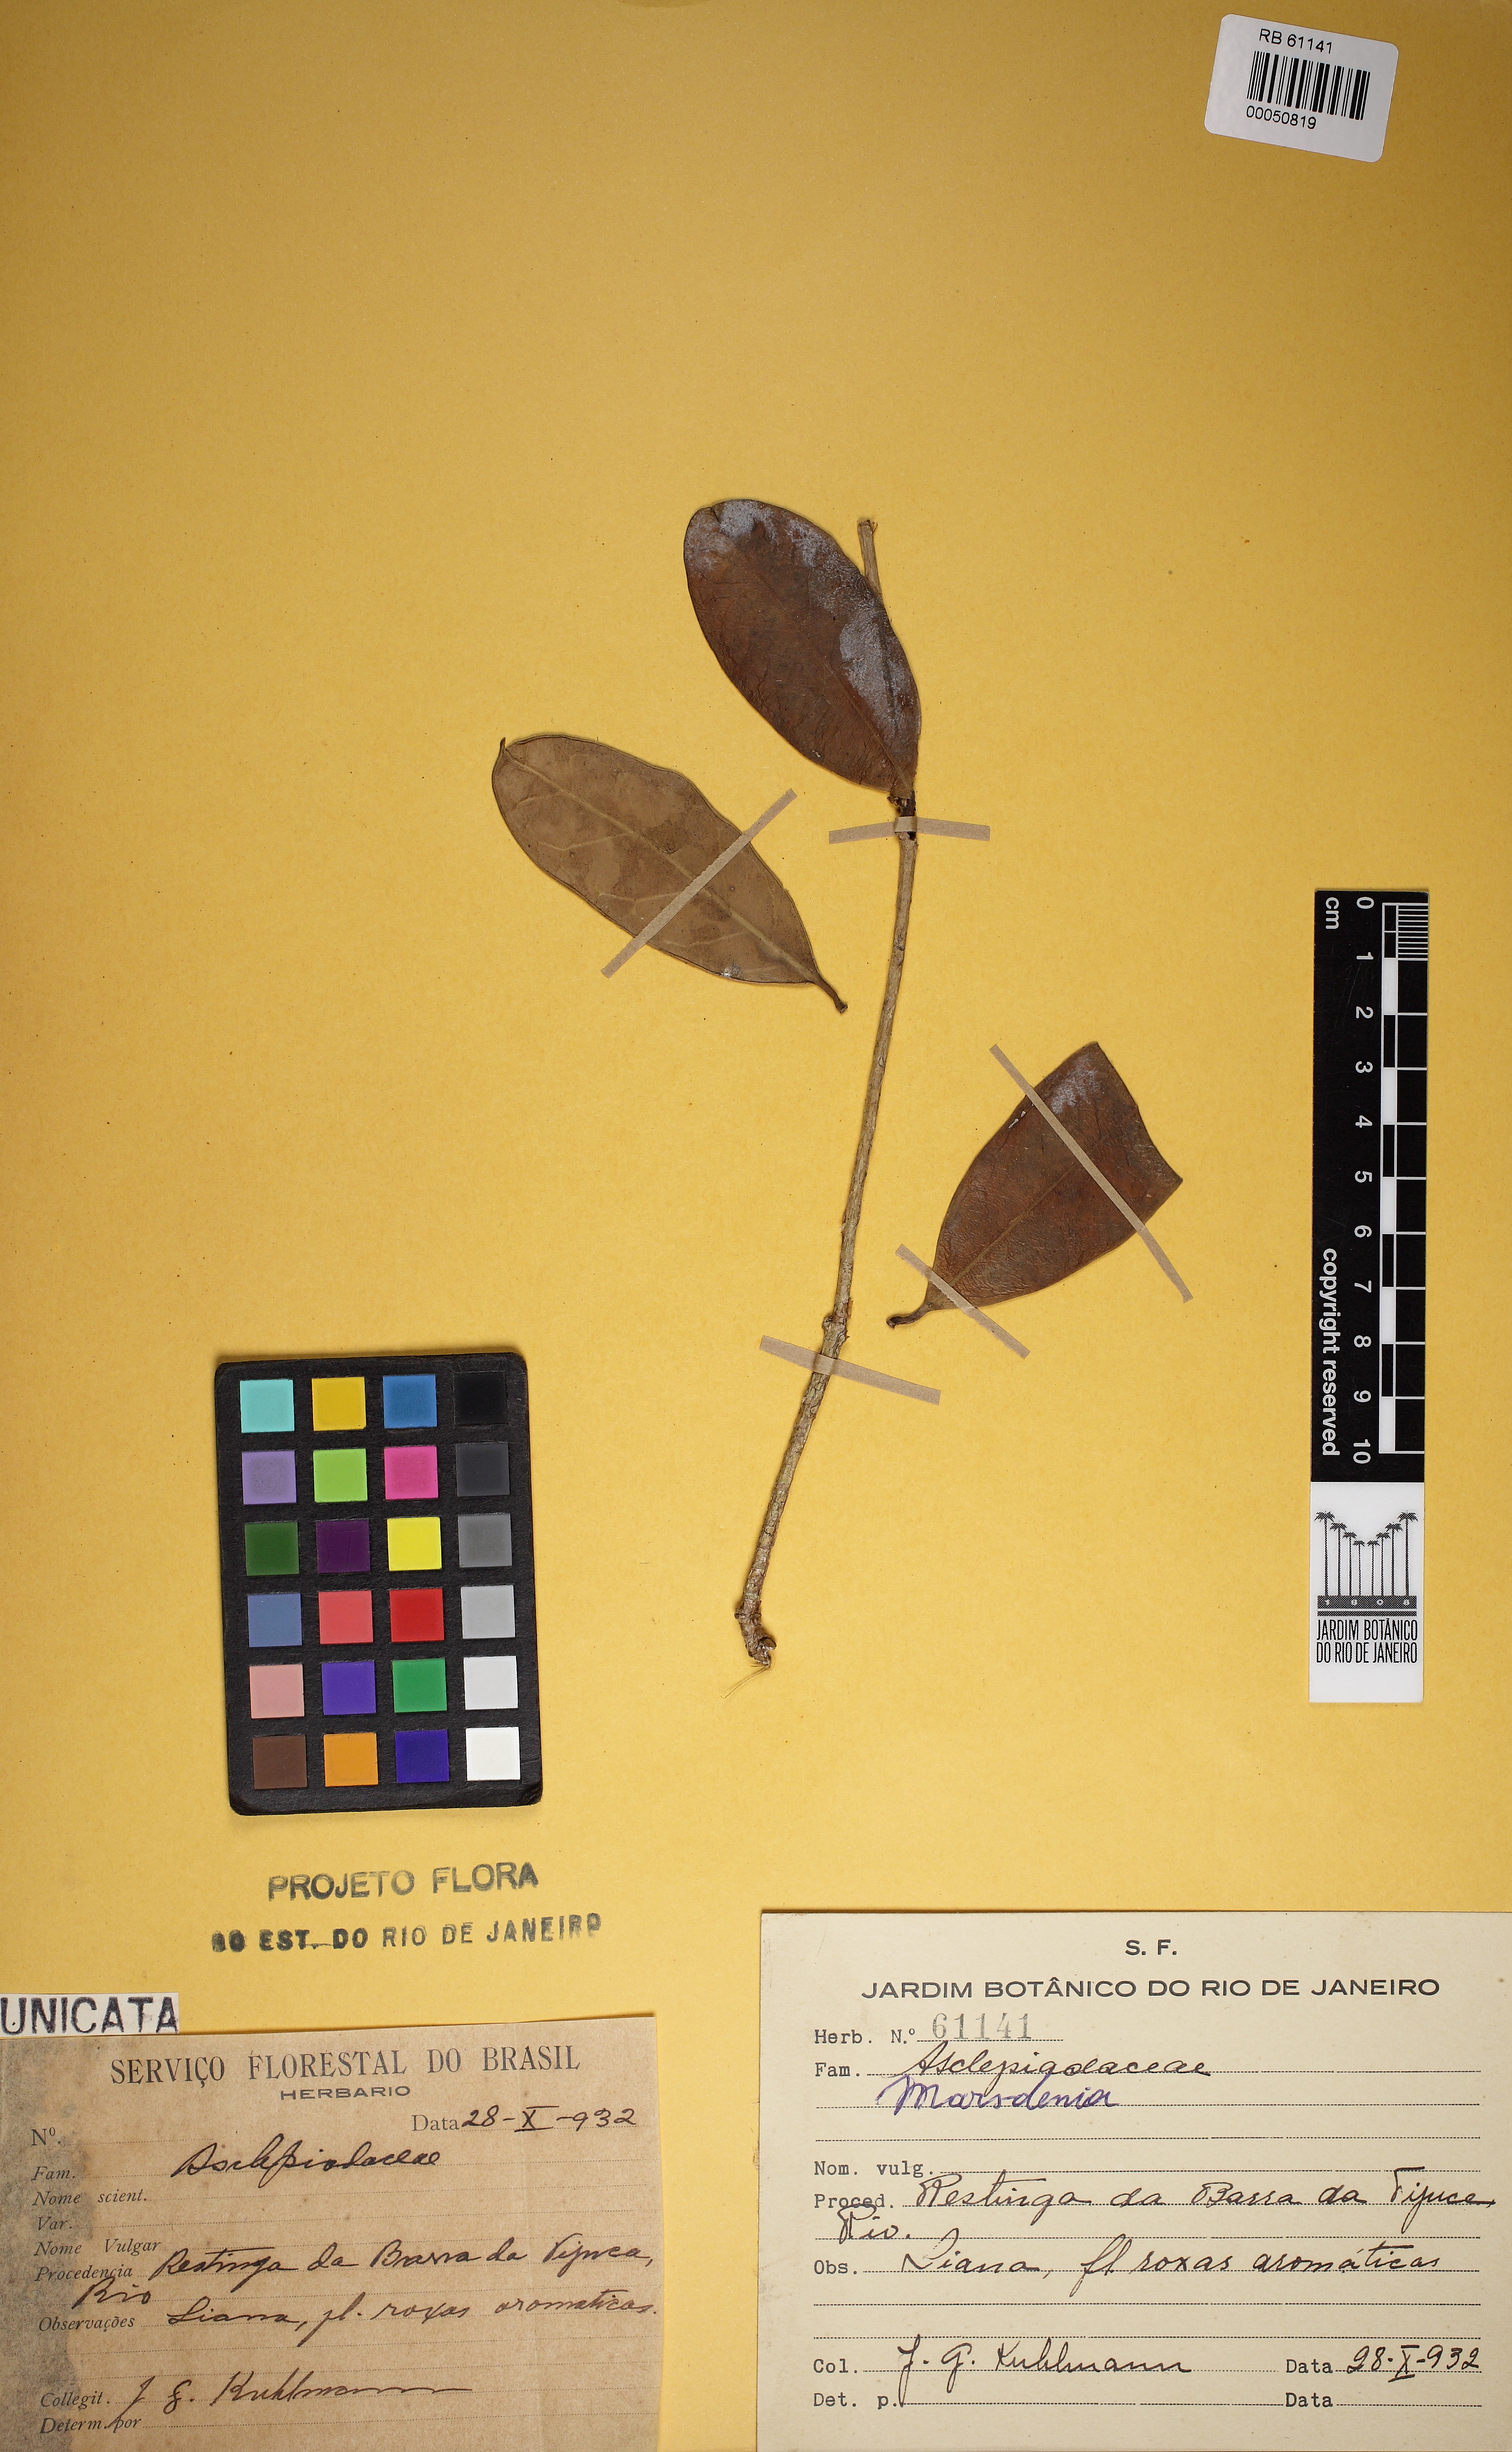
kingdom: Plantae
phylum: Tracheophyta
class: Magnoliopsida
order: Gentianales
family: Apocynaceae
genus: Marsdenia
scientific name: Marsdenia
